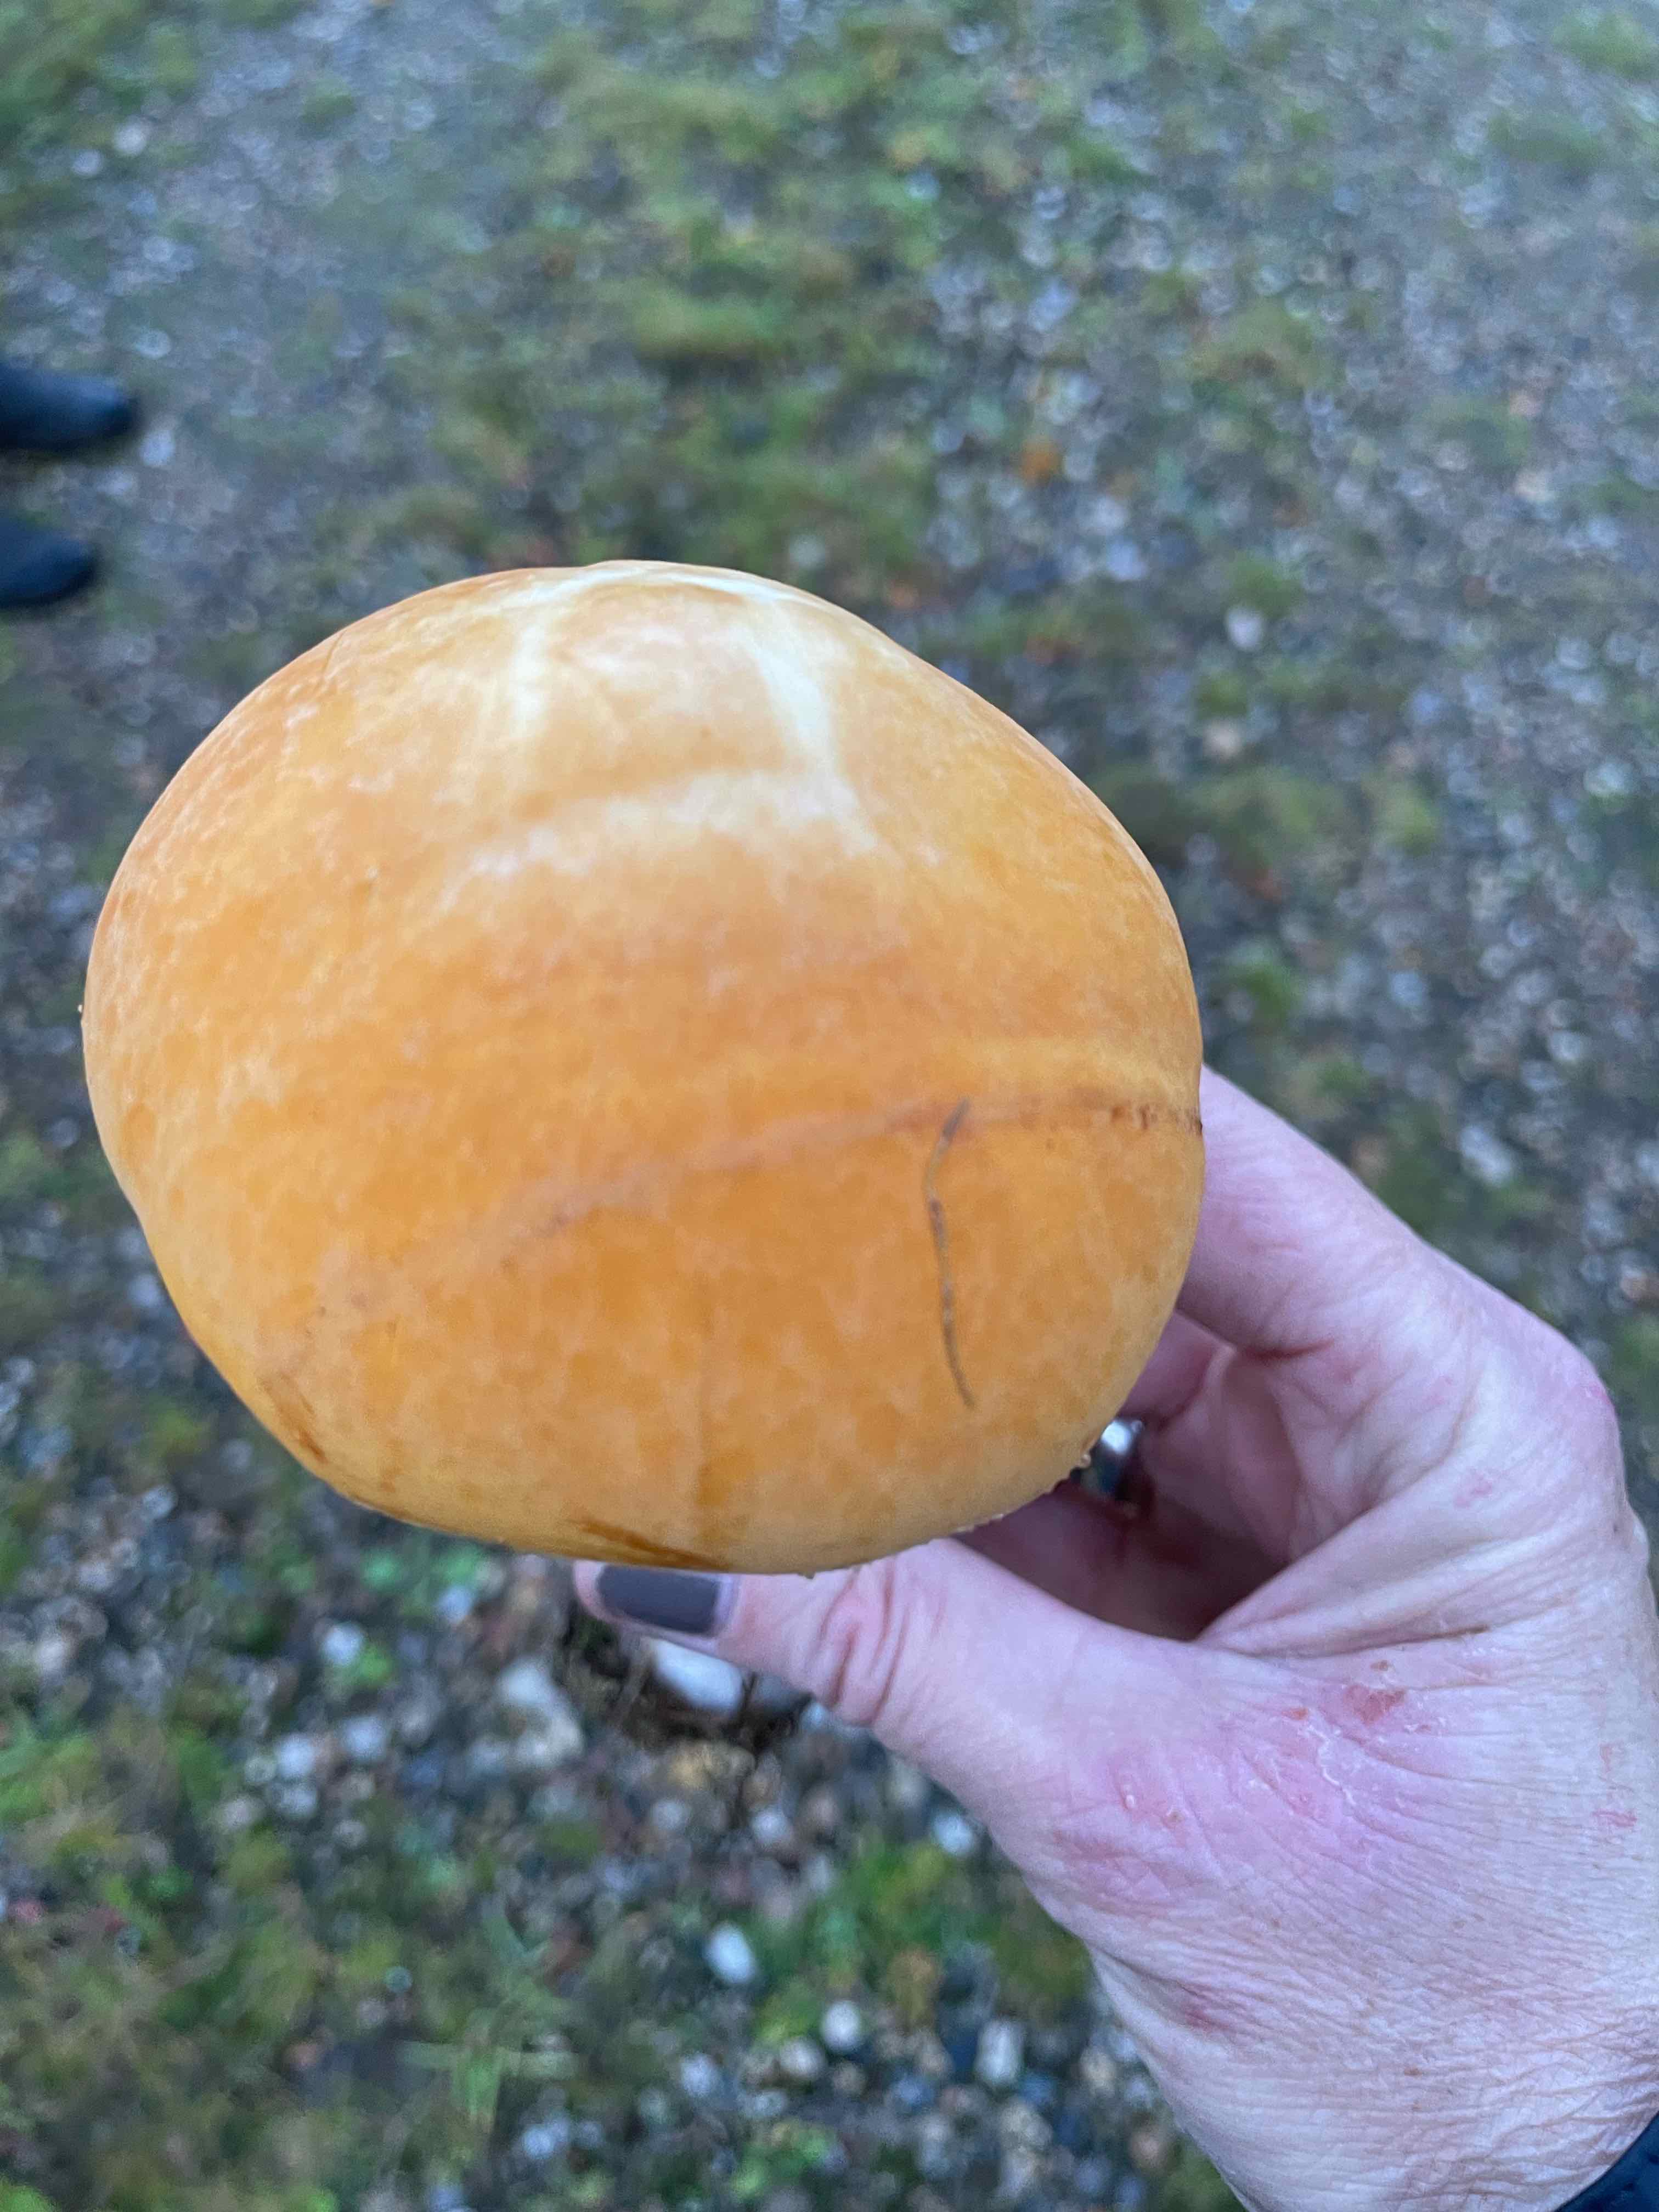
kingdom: Fungi
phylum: Basidiomycota
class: Agaricomycetes
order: Agaricales
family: Tricholomataceae
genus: Phaeolepiota
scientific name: Phaeolepiota aurea
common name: gyldenhat
